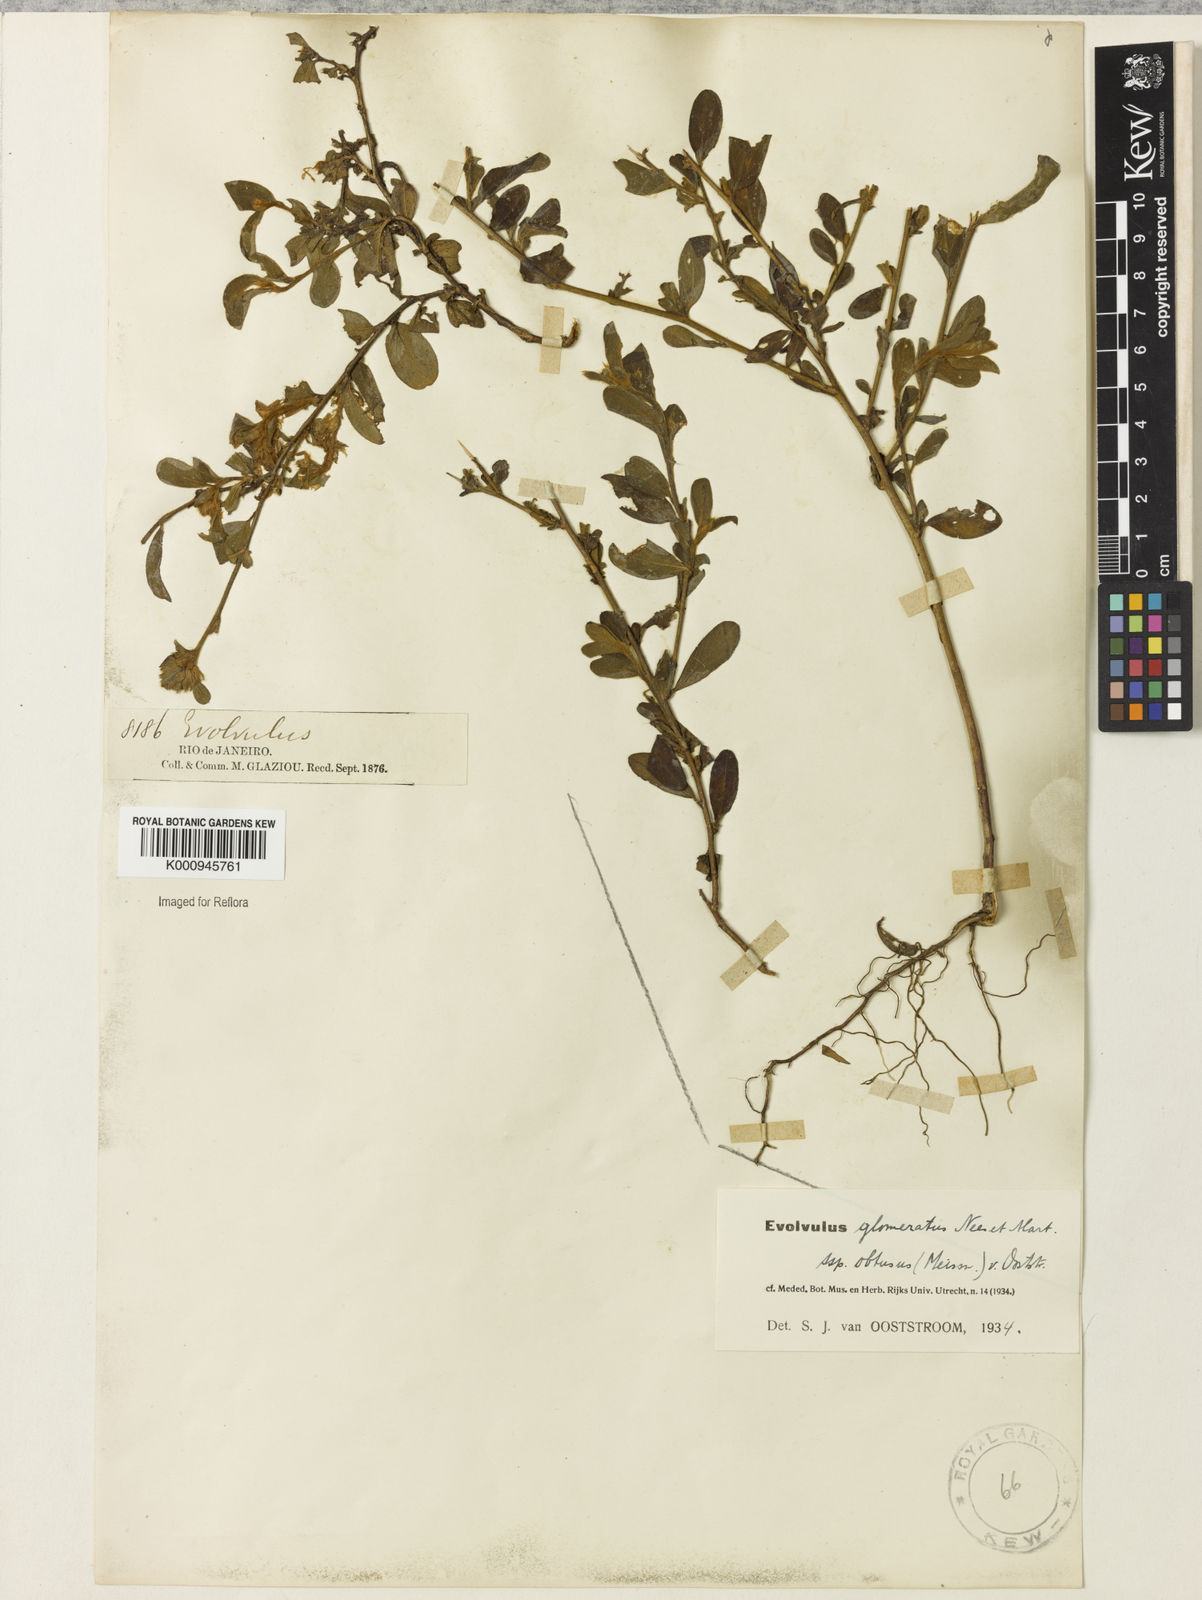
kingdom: Plantae
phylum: Tracheophyta
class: Magnoliopsida
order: Solanales
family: Convolvulaceae
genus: Evolvulus
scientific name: Evolvulus glomeratus
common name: Brazilian dwarf morning-glory
